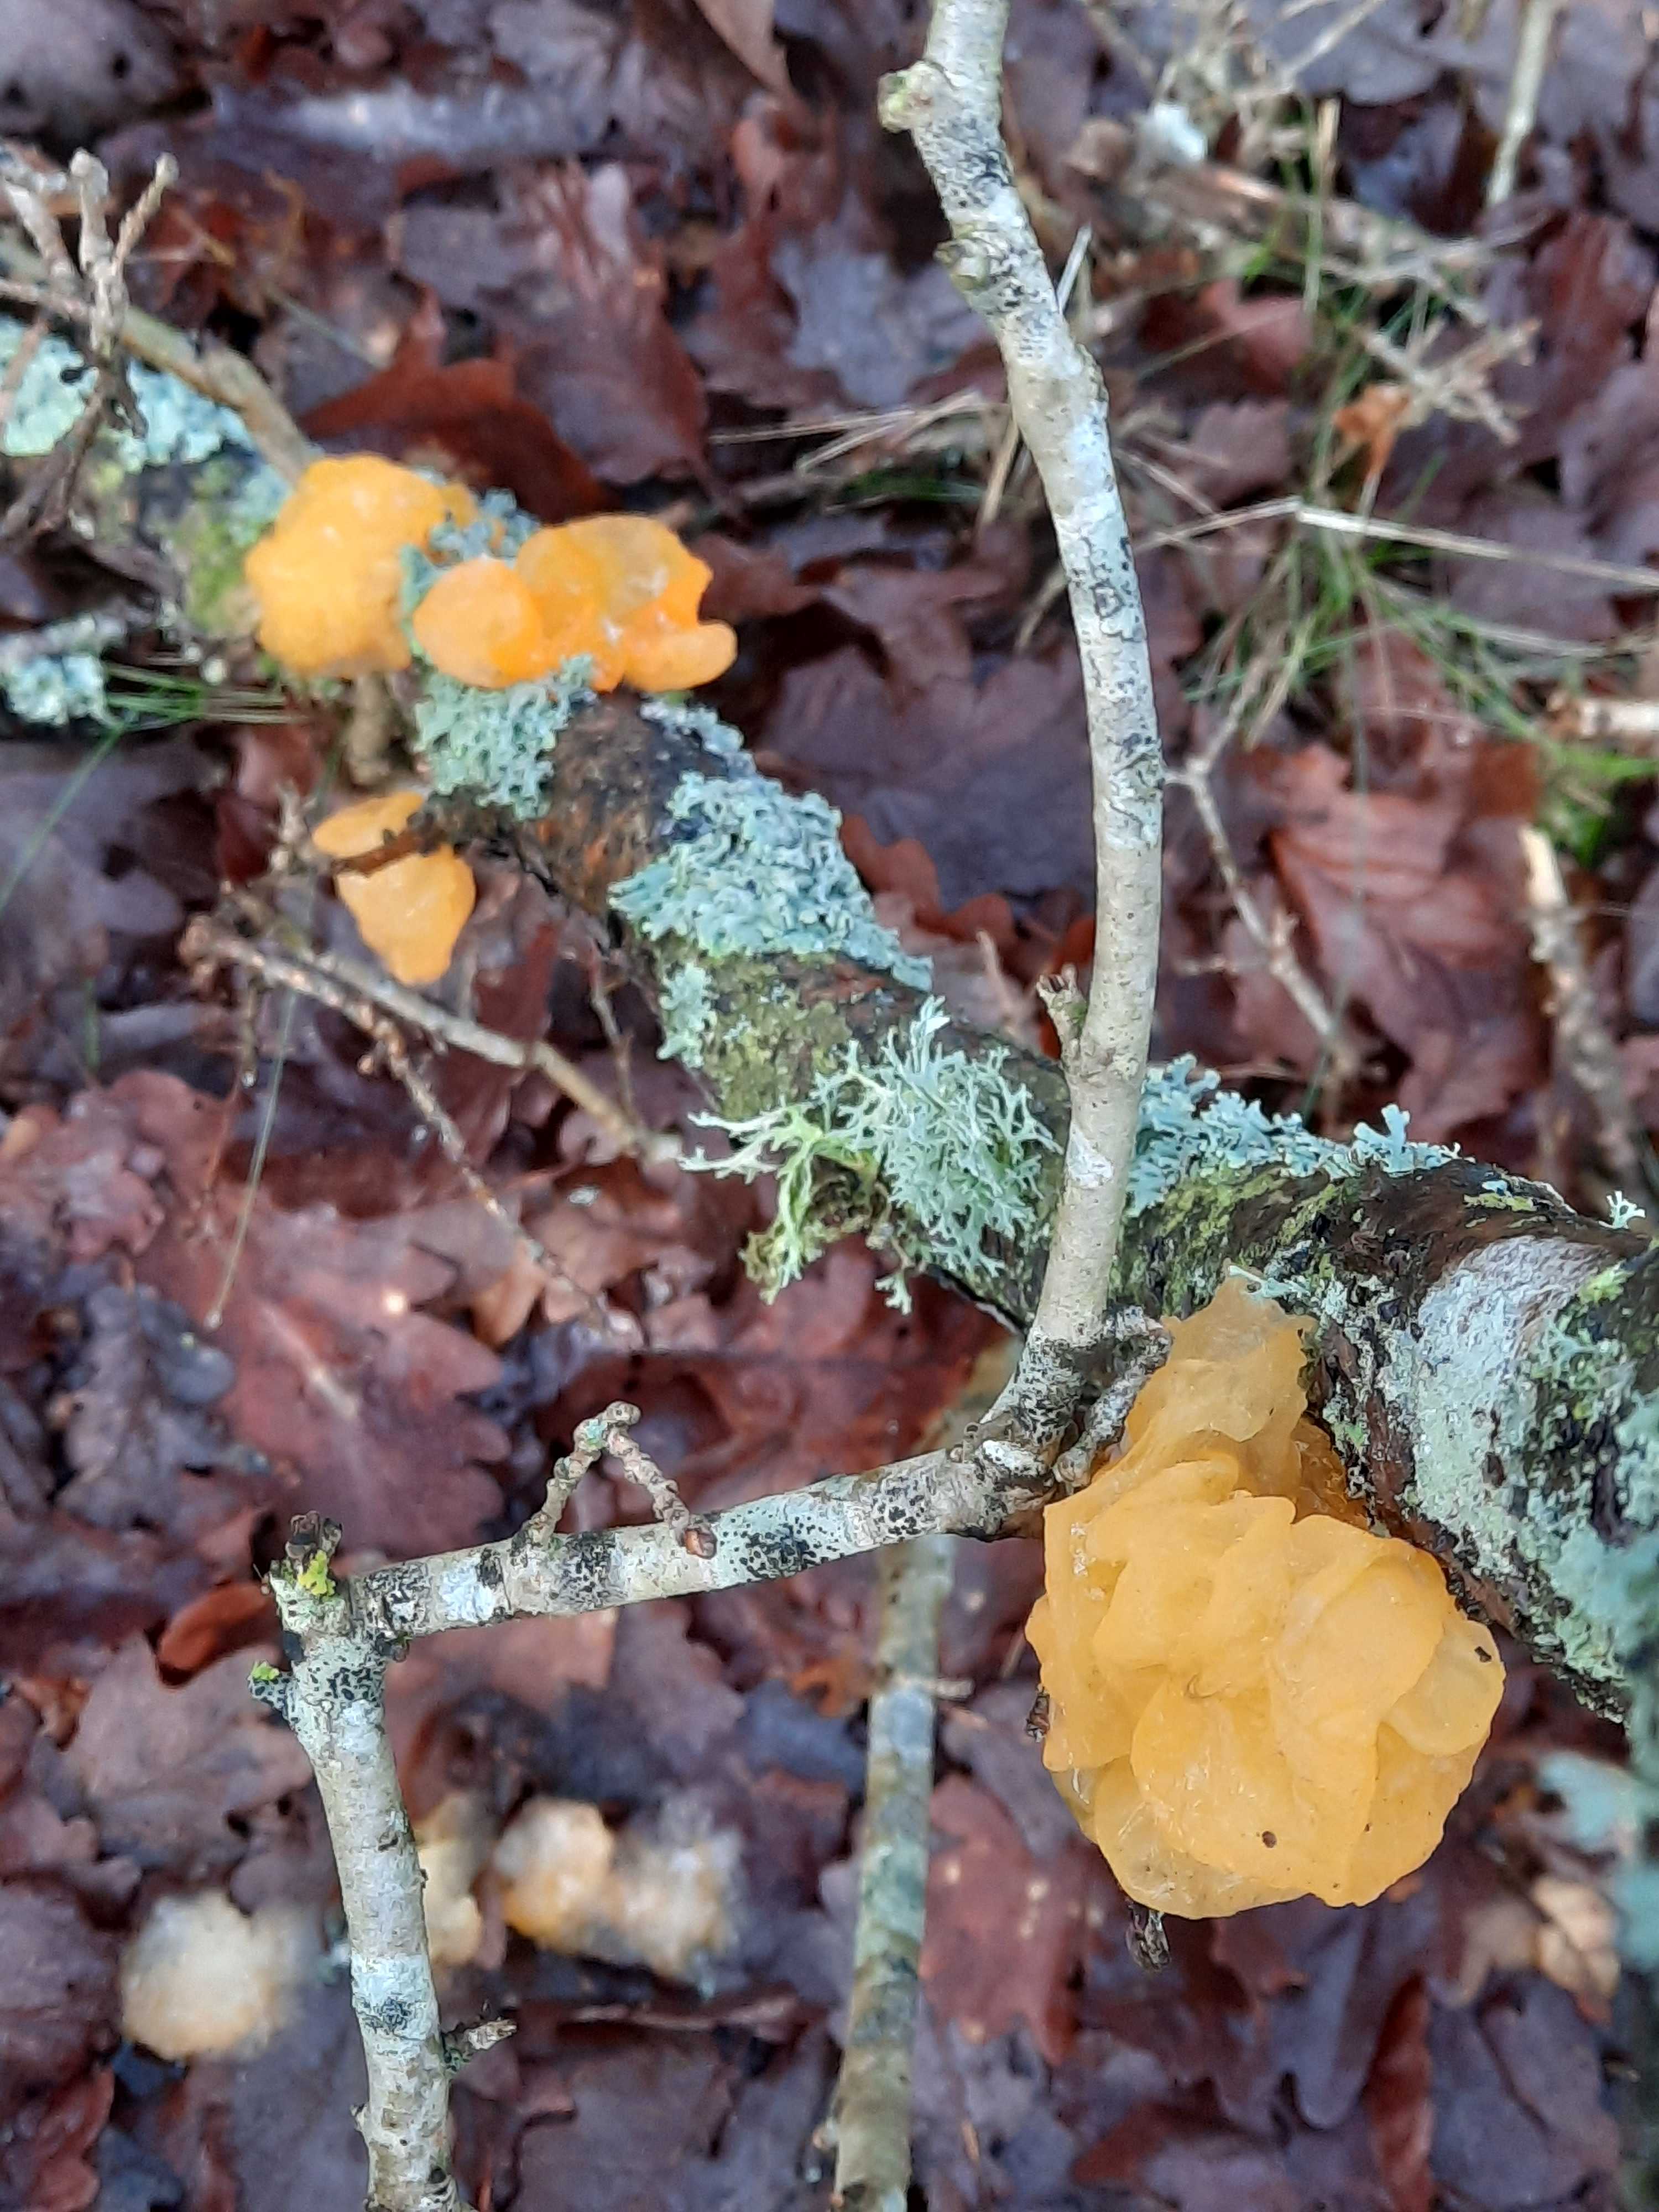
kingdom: Fungi
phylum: Basidiomycota
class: Tremellomycetes
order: Tremellales
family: Tremellaceae
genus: Tremella
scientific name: Tremella mesenterica
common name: gul bævresvamp
